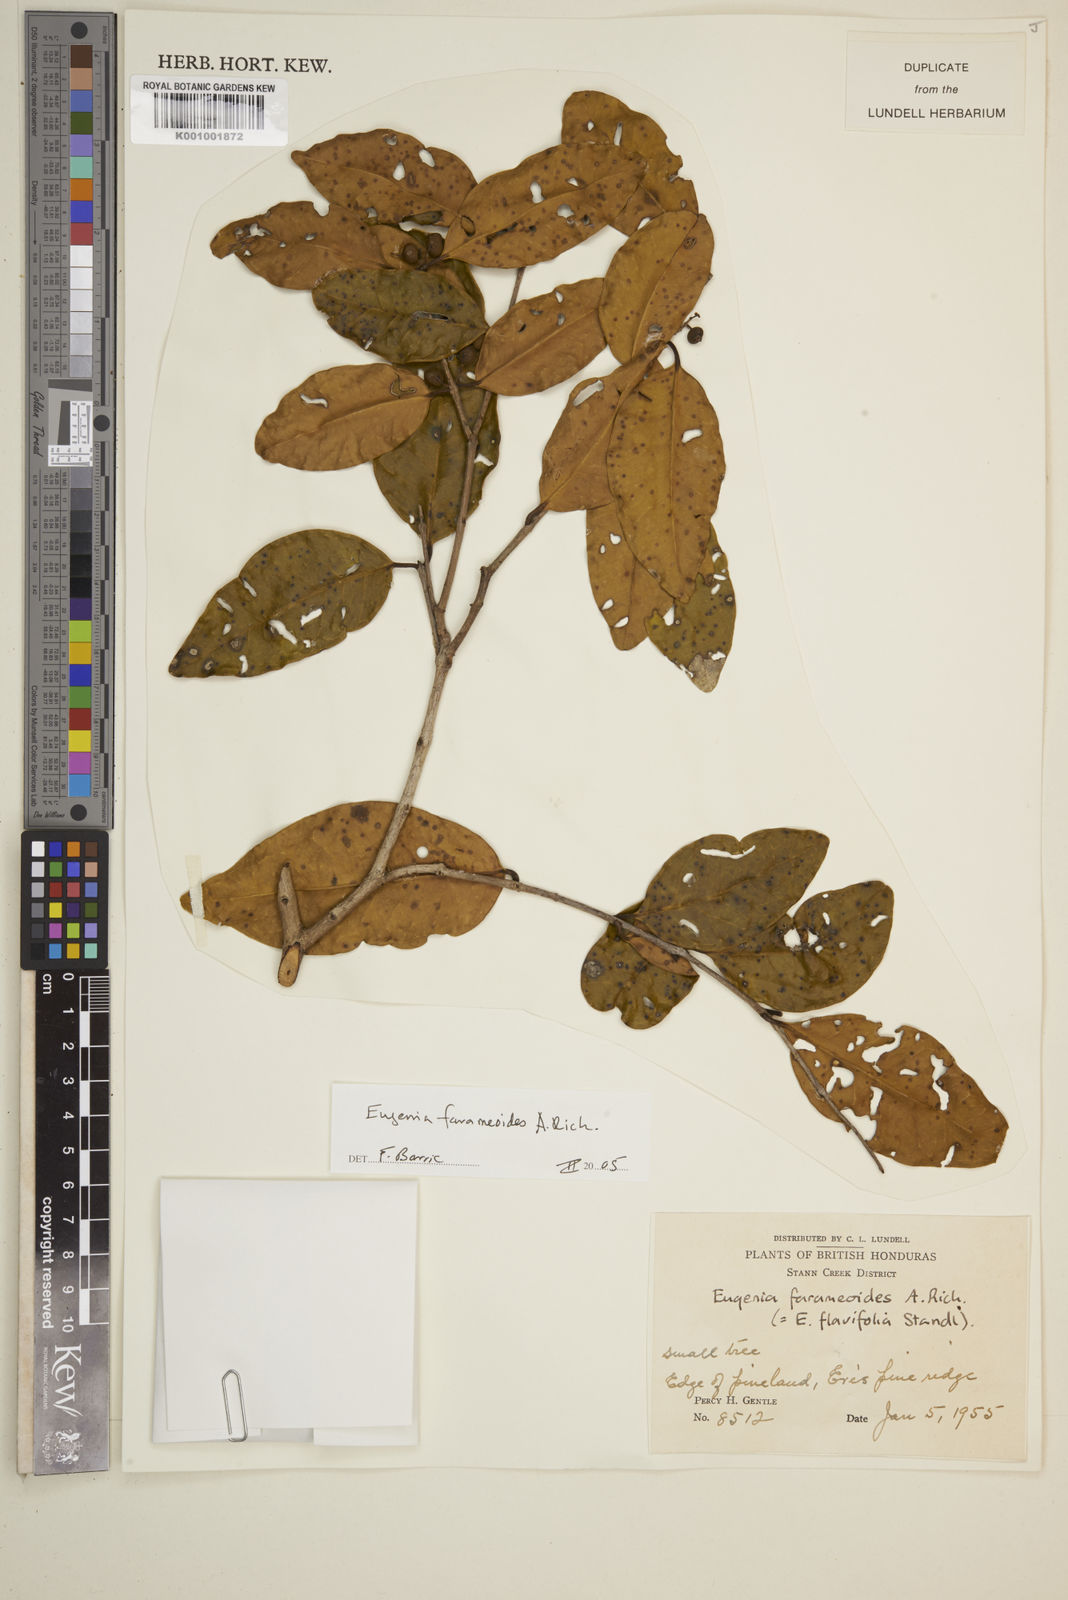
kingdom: Plantae
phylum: Tracheophyta
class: Magnoliopsida
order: Myrtales
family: Myrtaceae
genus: Eugenia
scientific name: Eugenia farameoides
